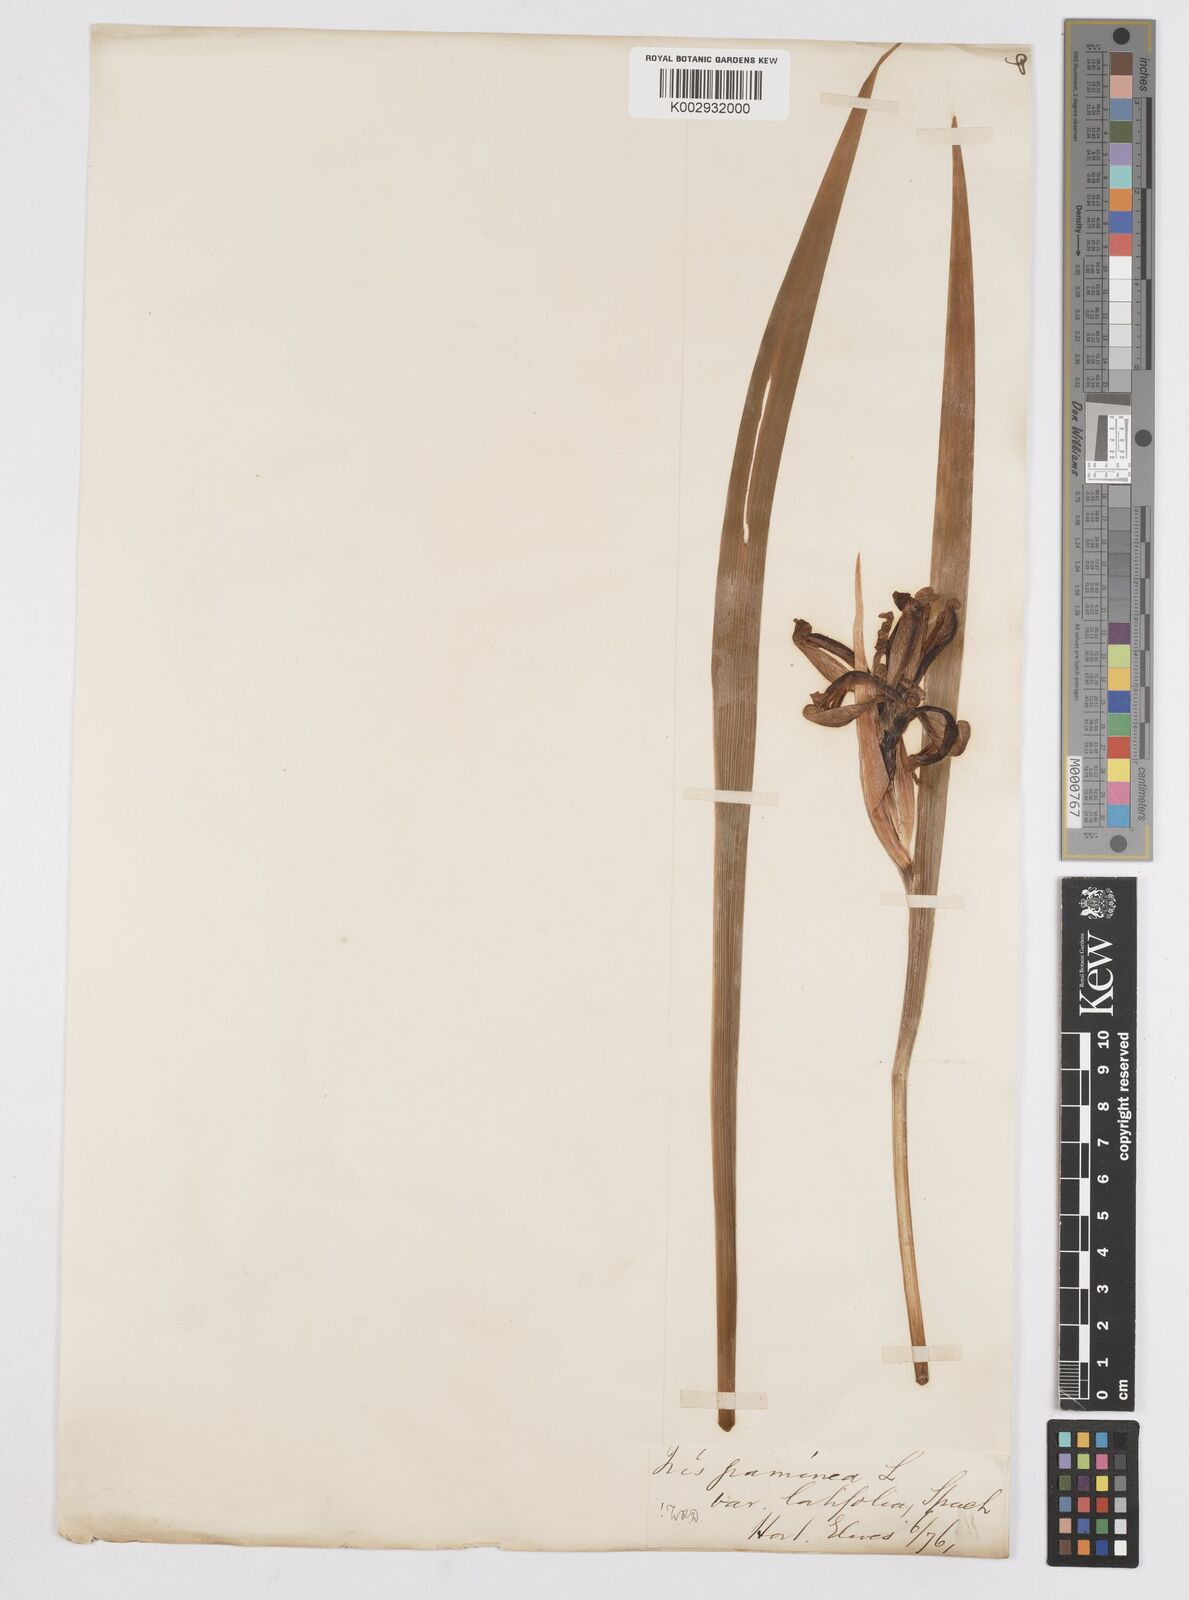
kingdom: Plantae
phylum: Tracheophyta
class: Liliopsida
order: Asparagales
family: Iridaceae
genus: Iris
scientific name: Iris graminea
